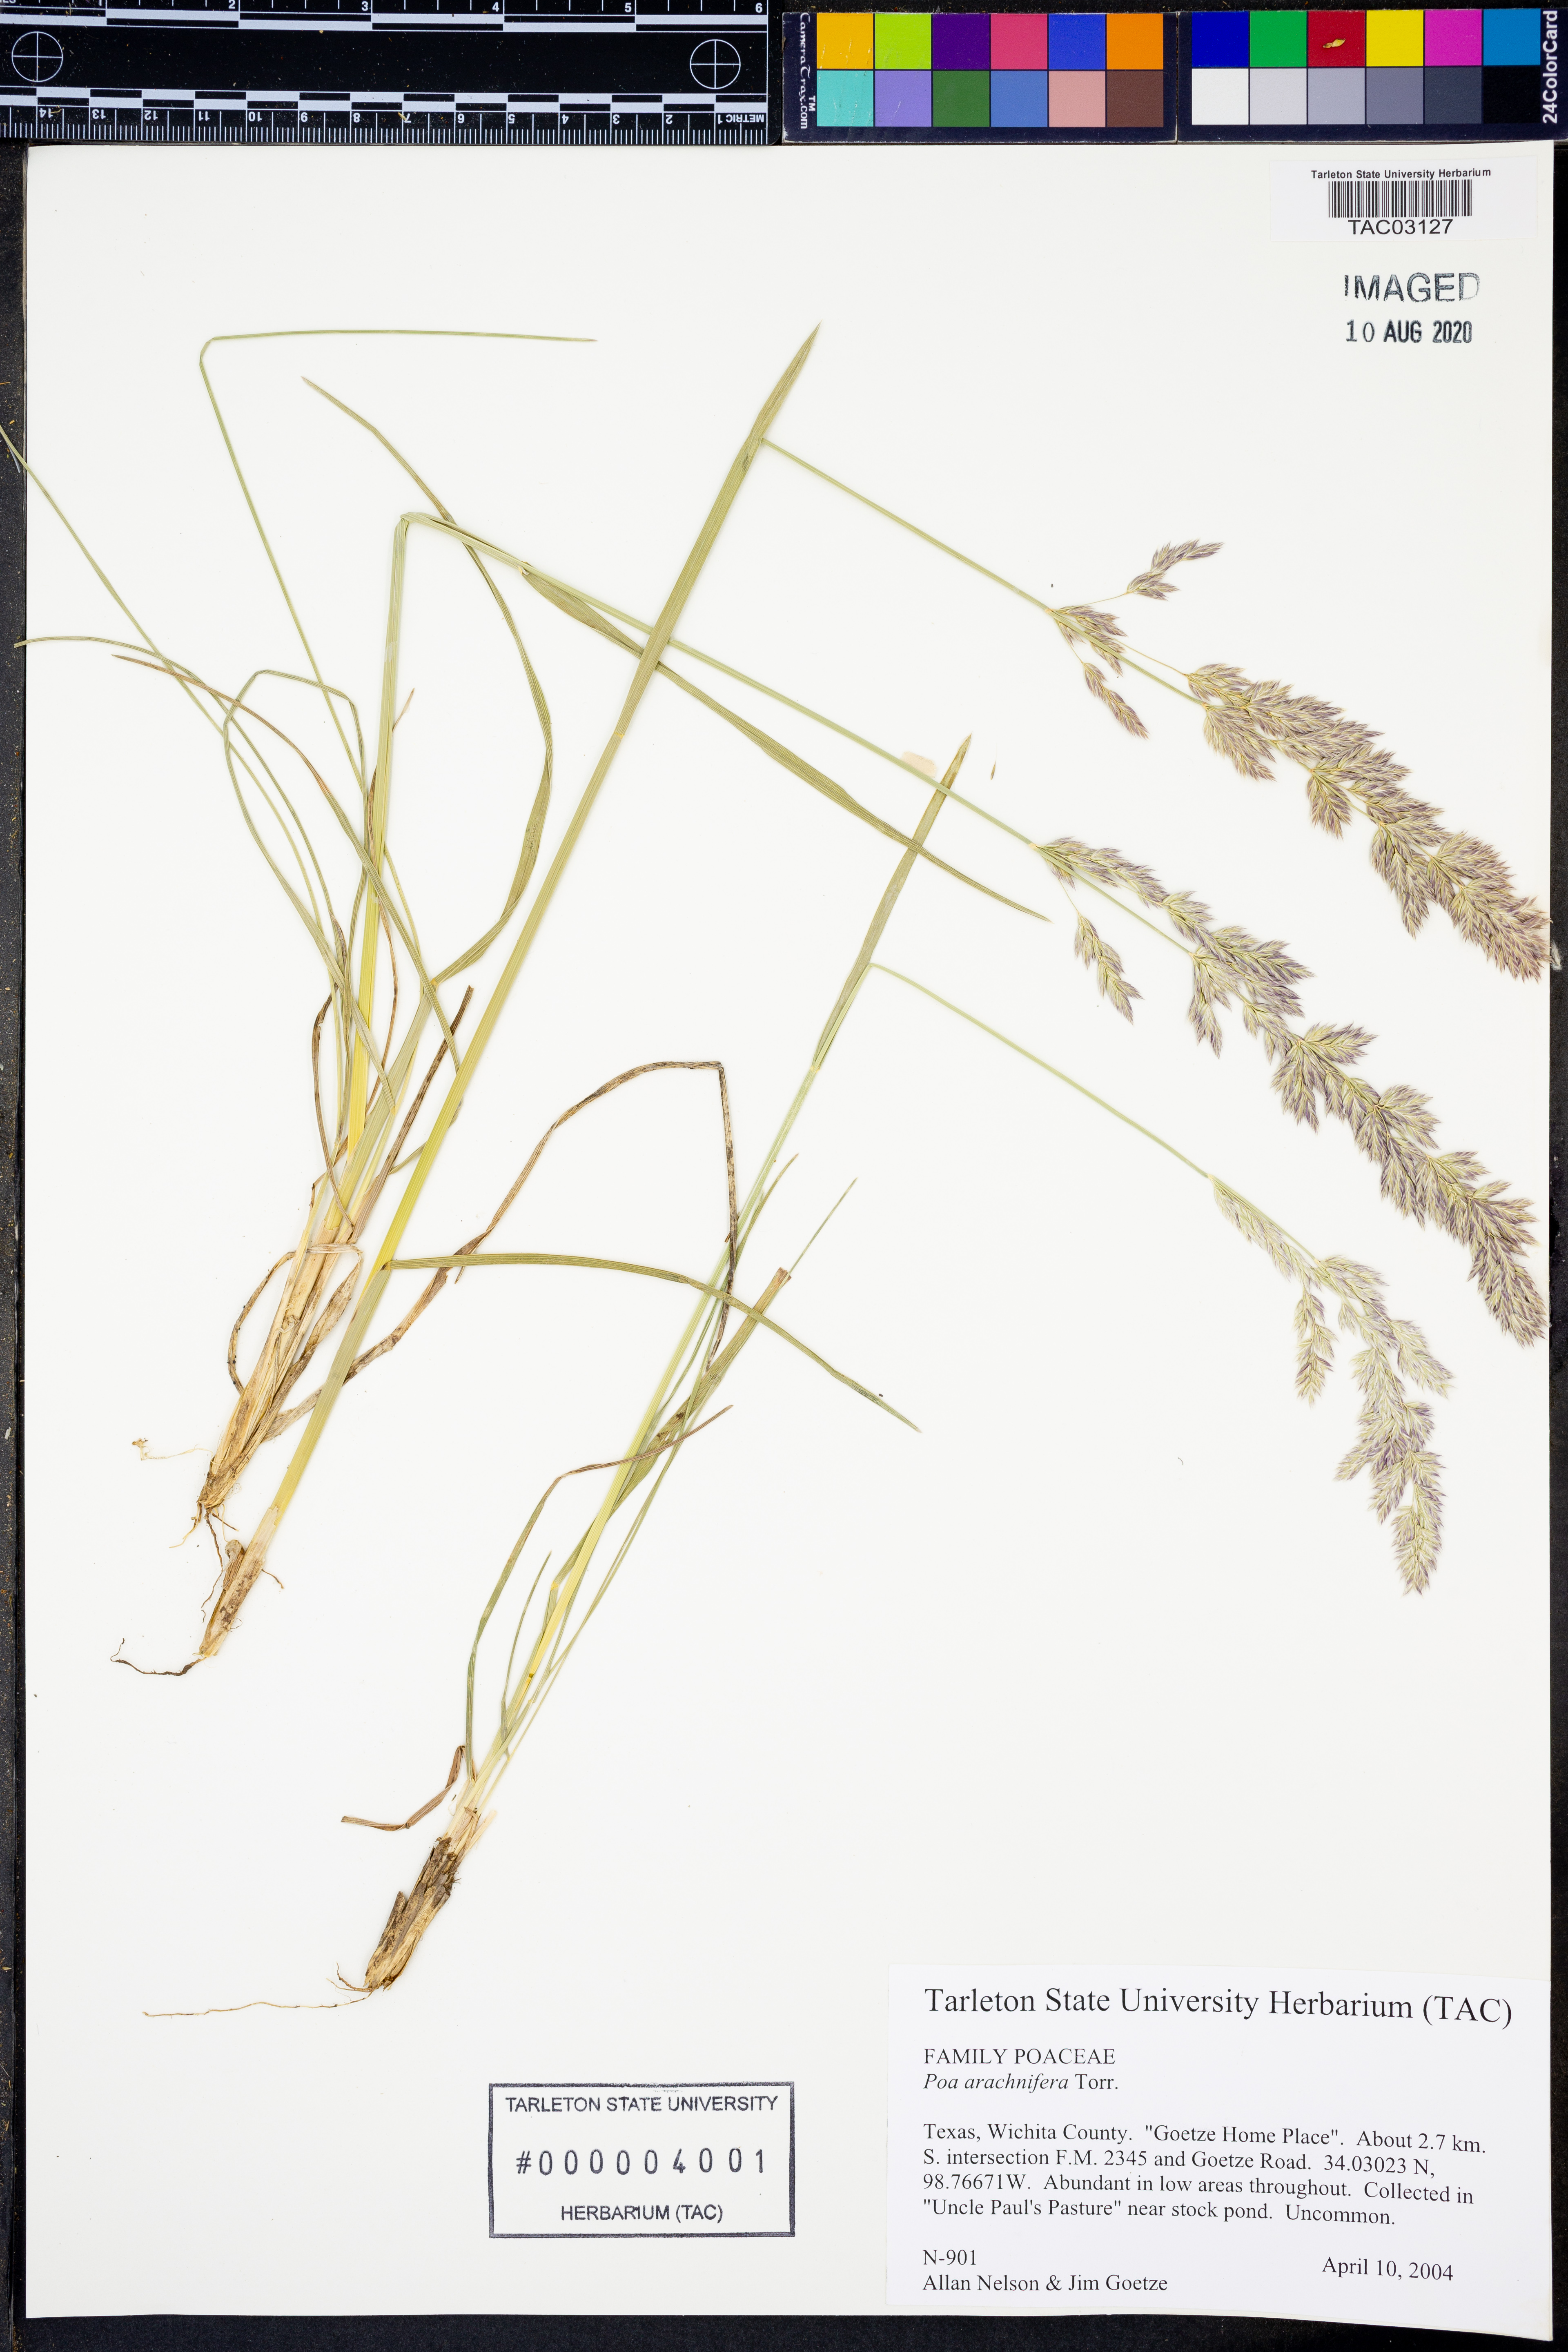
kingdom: Plantae
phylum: Tracheophyta
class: Liliopsida
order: Poales
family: Poaceae
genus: Poa
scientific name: Poa arachnifera
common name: Texas bluegrass
